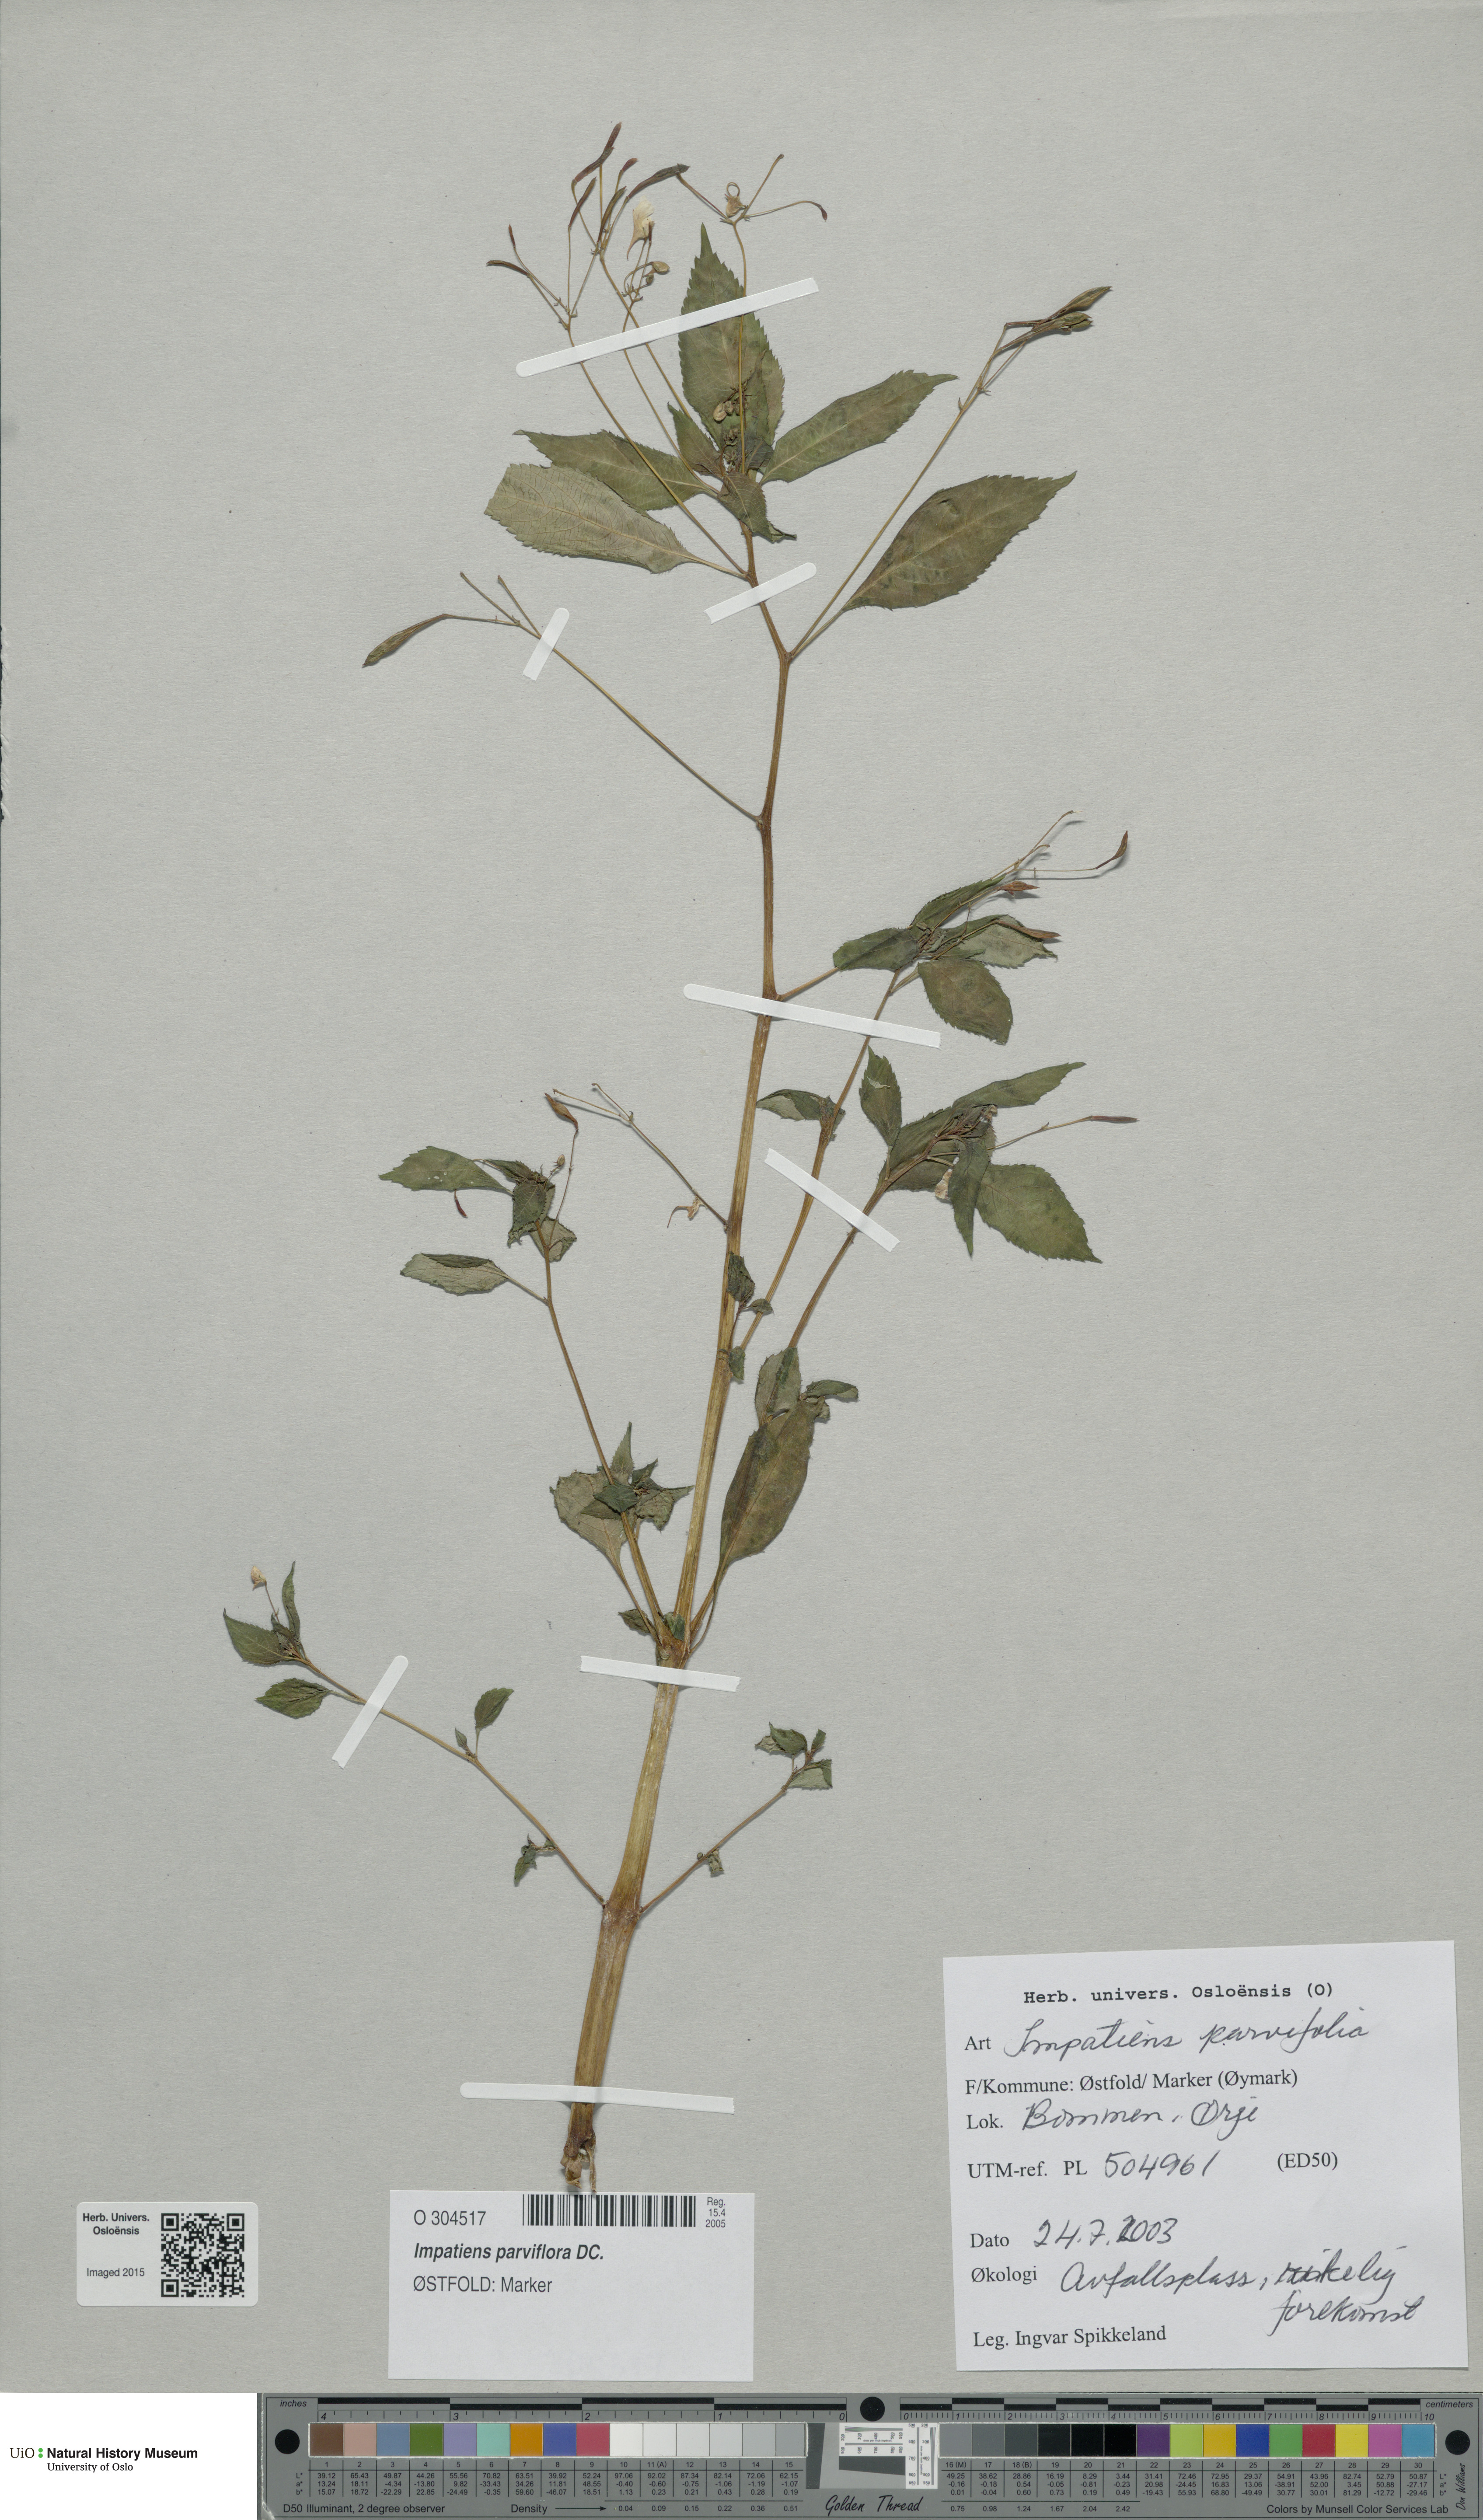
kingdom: Plantae
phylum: Tracheophyta
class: Magnoliopsida
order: Ericales
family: Balsaminaceae
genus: Impatiens
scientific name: Impatiens parviflora
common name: Small balsam
